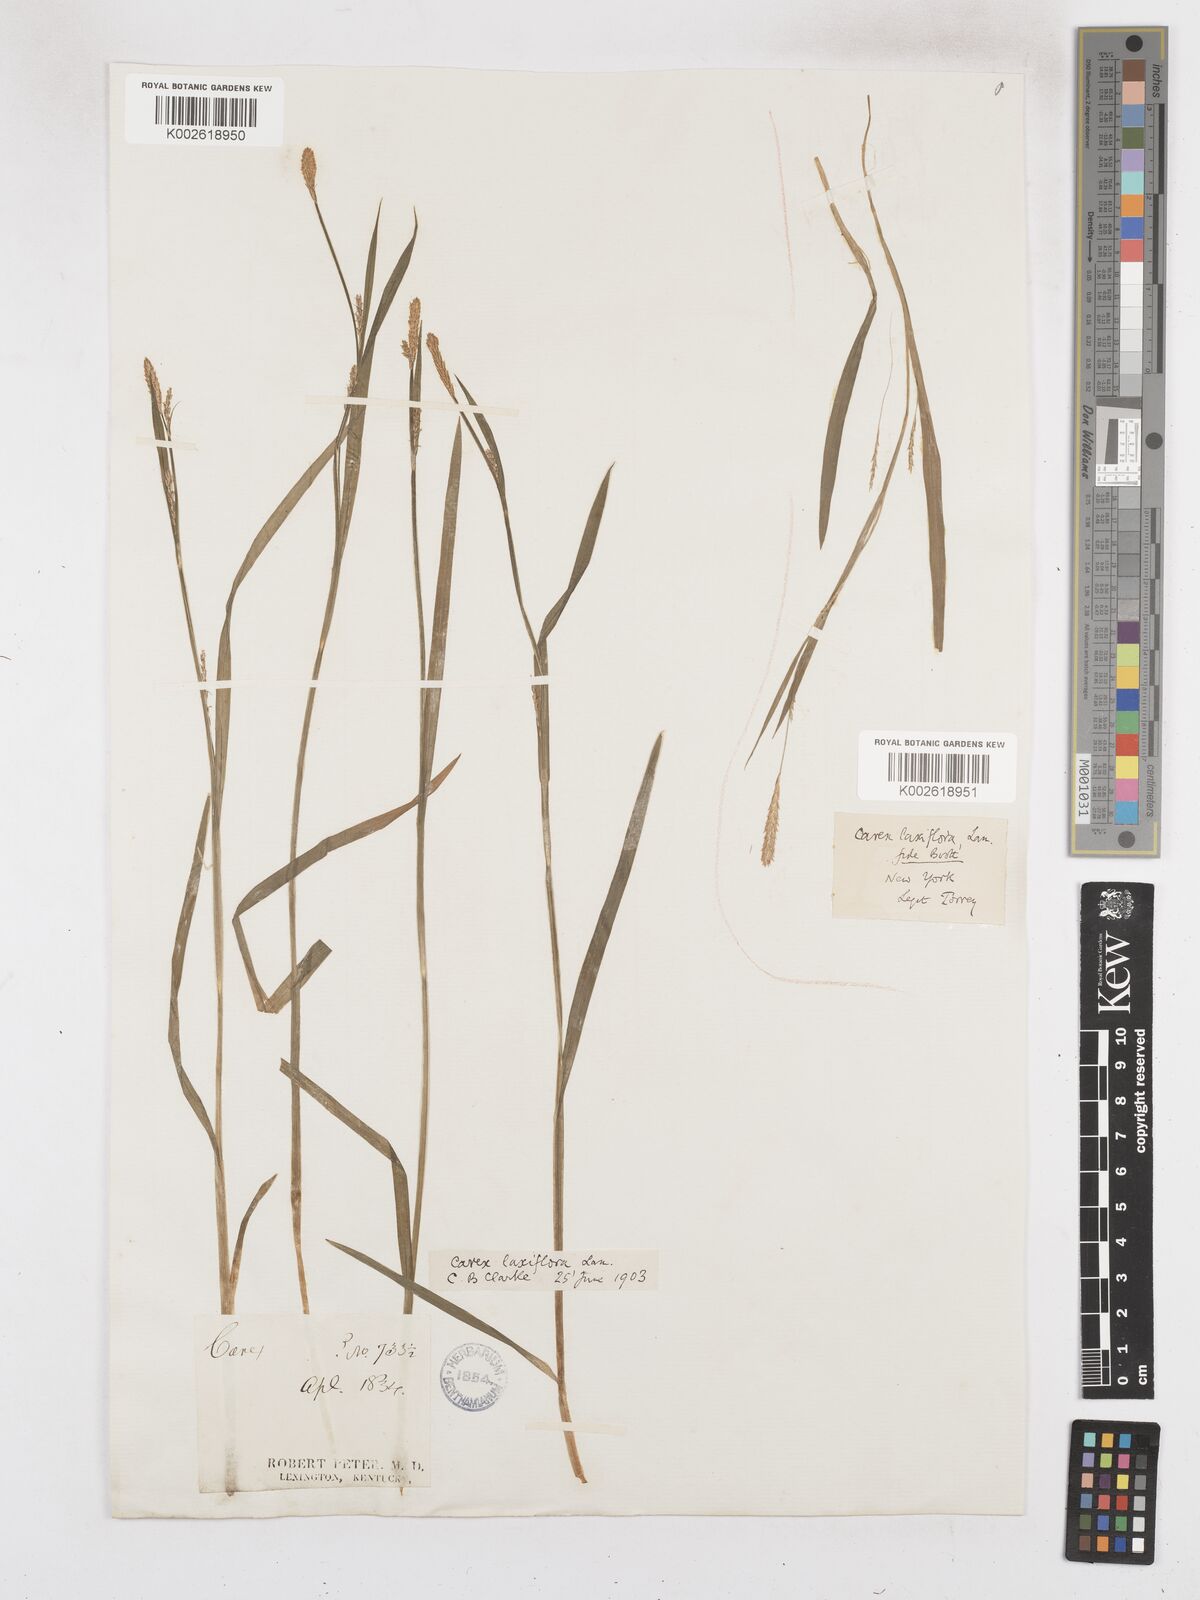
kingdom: Plantae
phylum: Tracheophyta
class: Liliopsida
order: Poales
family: Cyperaceae
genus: Carex
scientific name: Carex laxiflora
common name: Beech wood sedge
